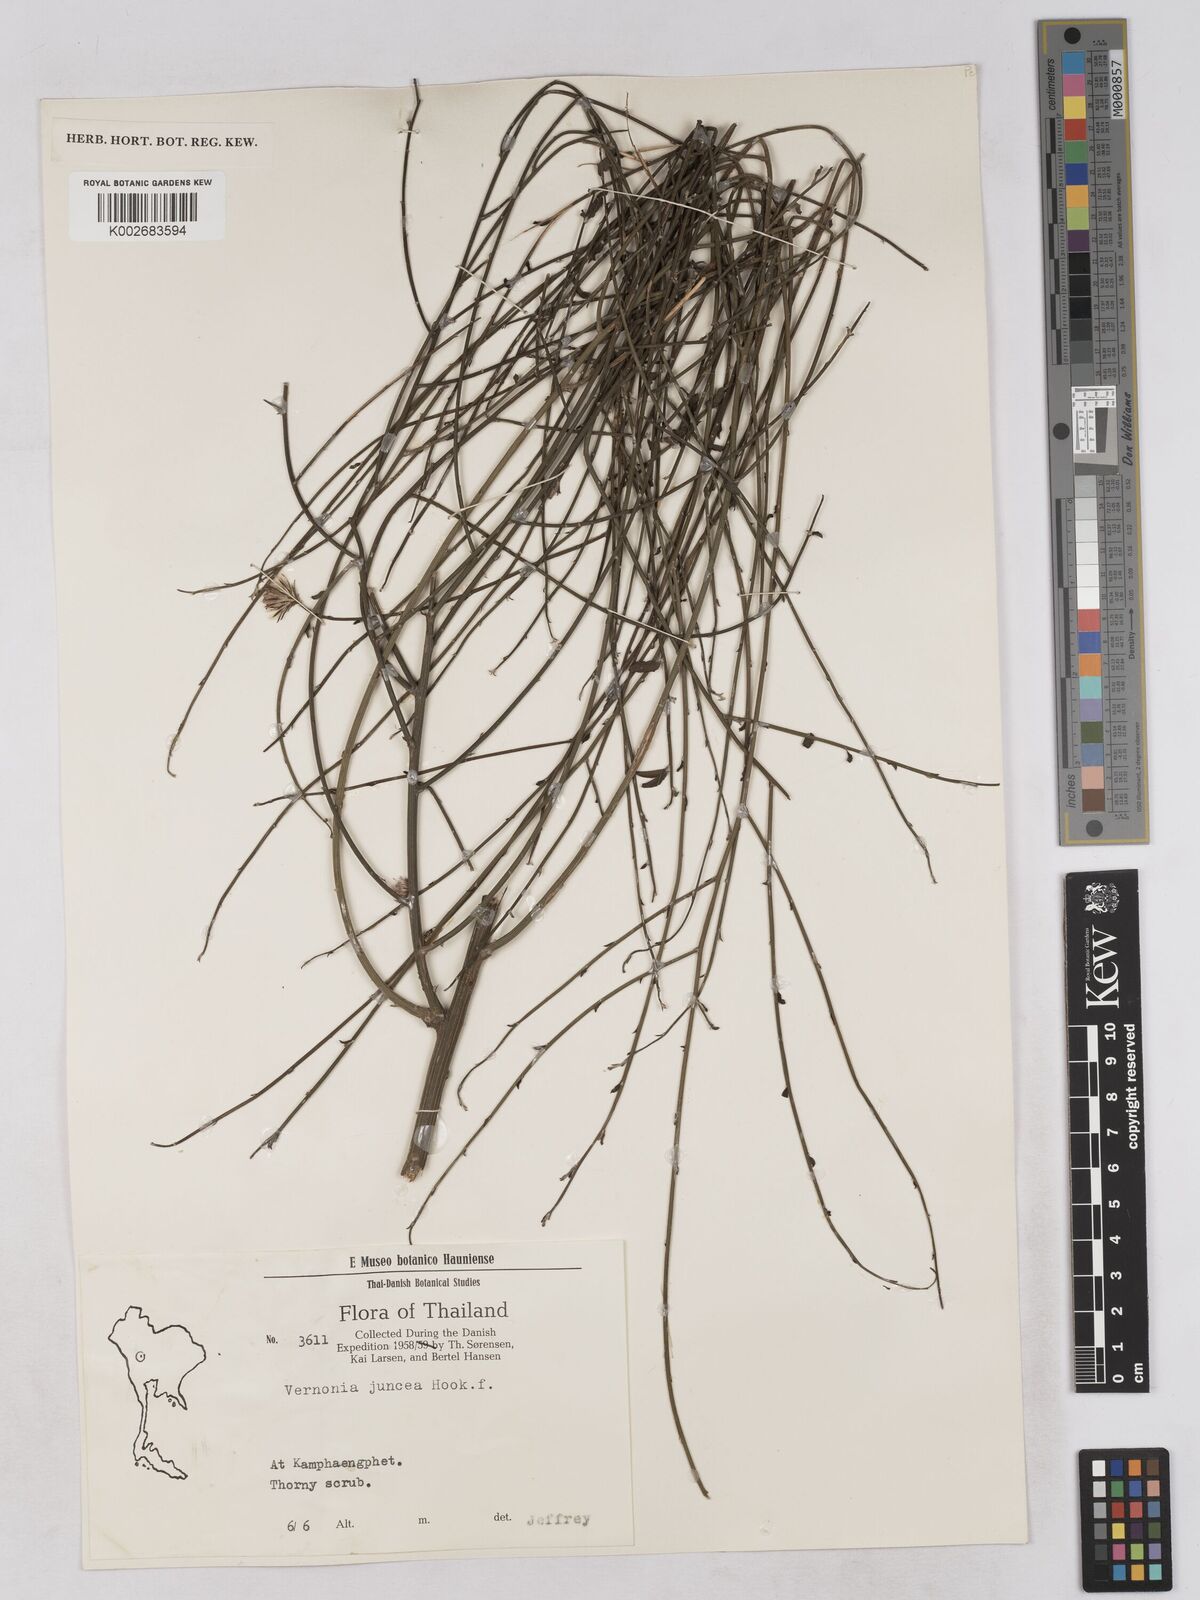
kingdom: Plantae
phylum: Tracheophyta
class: Magnoliopsida
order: Asterales
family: Asteraceae
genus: Vernonia
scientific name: Vernonia
